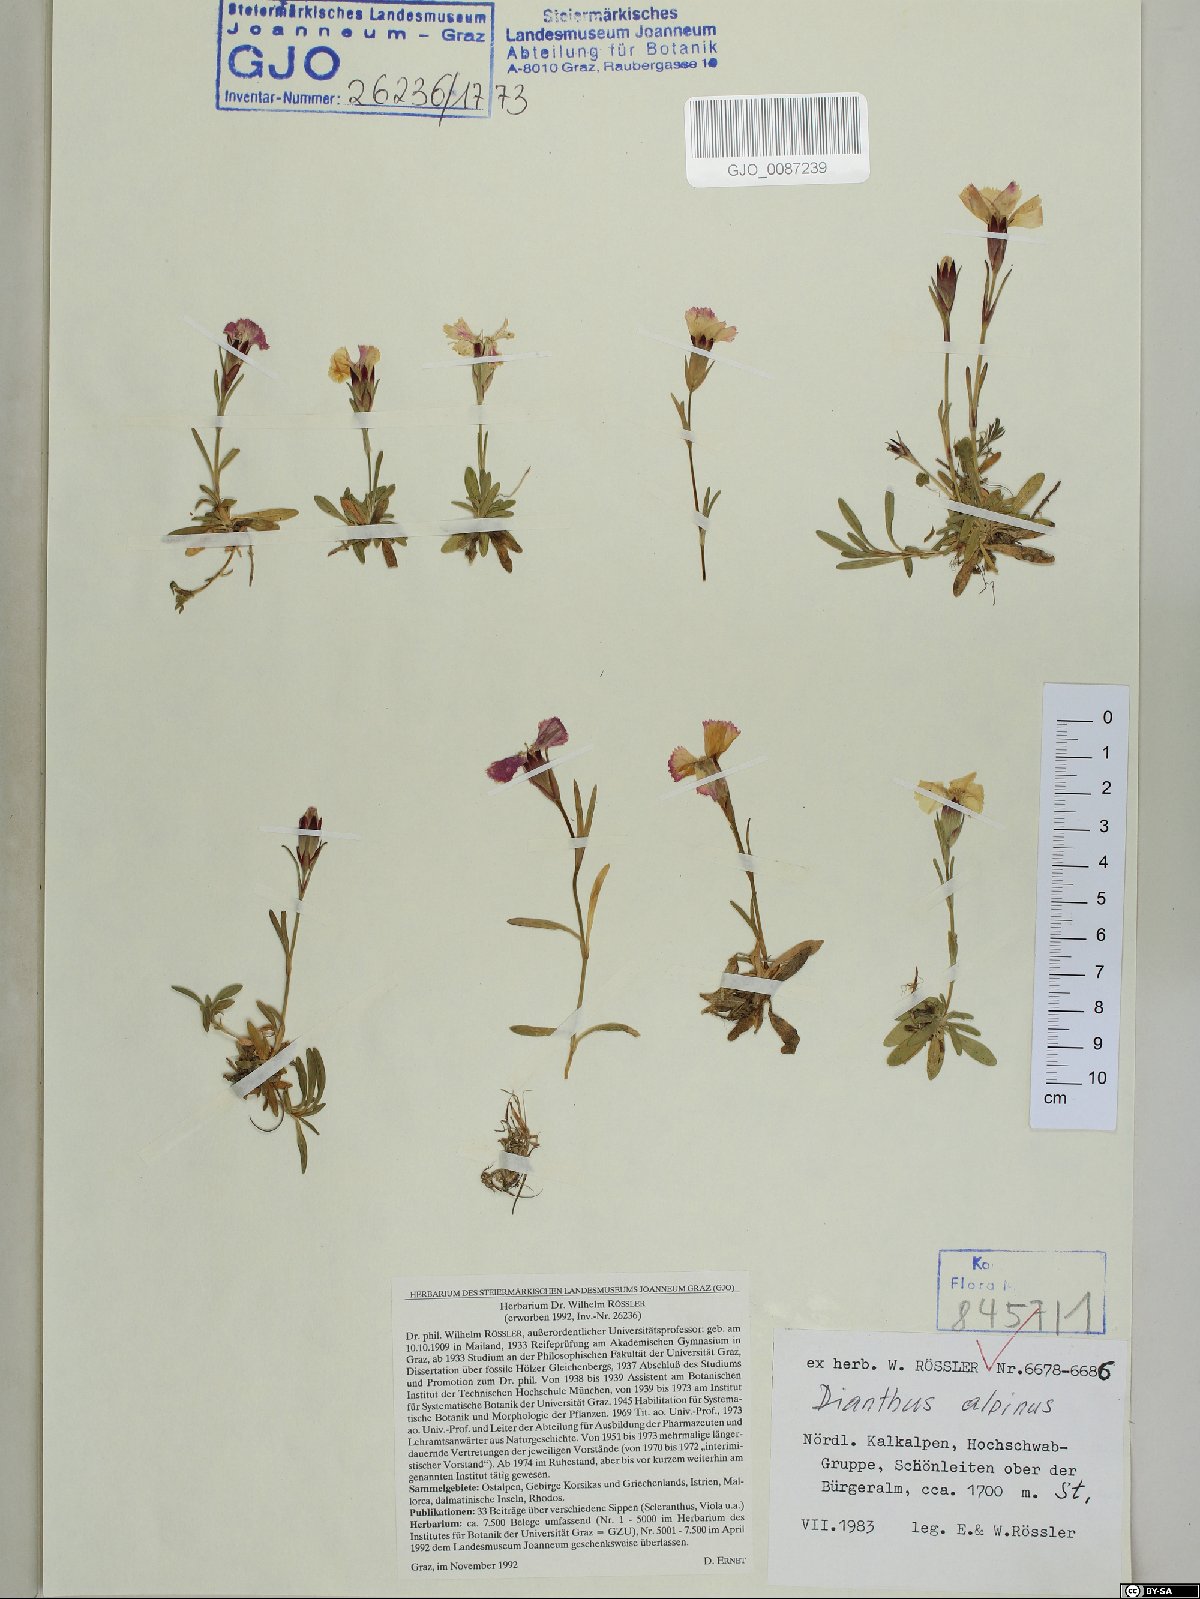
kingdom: Plantae
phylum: Tracheophyta
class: Magnoliopsida
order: Caryophyllales
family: Caryophyllaceae
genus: Dianthus
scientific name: Dianthus alpinus
